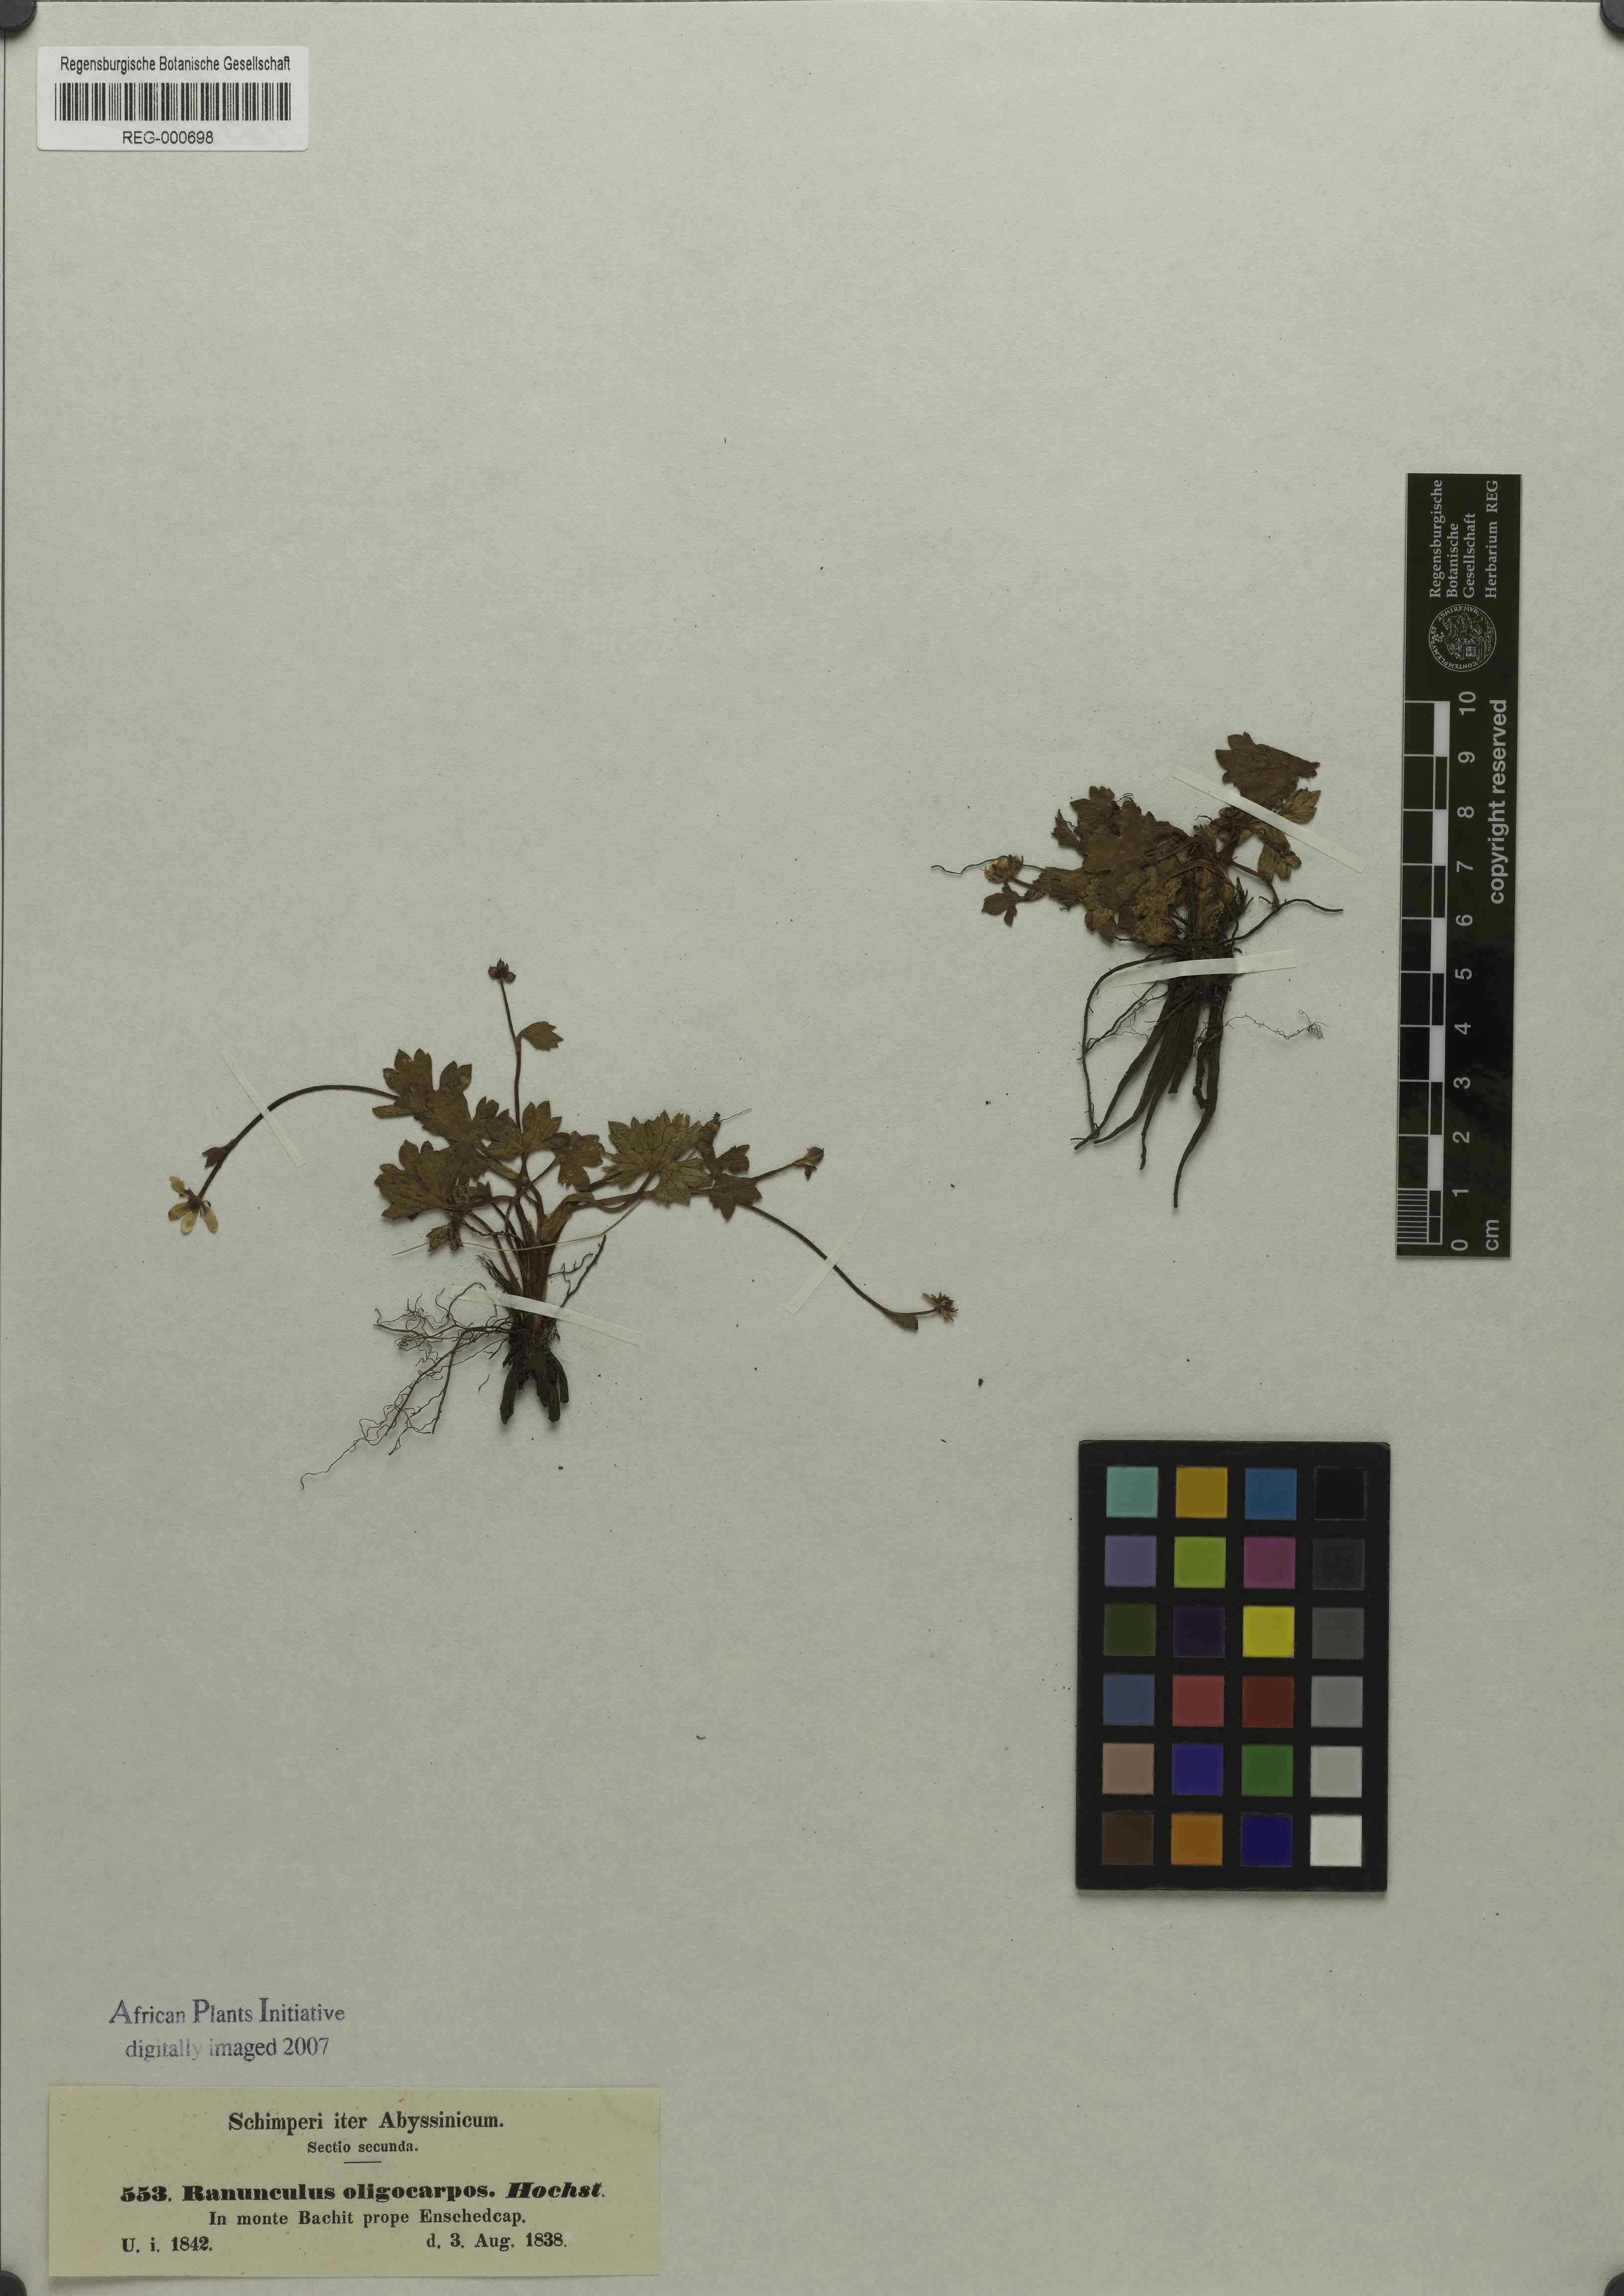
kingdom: Plantae
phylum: Tracheophyta
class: Magnoliopsida
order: Ranunculales
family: Ranunculaceae
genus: Ranunculus
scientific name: Ranunculus oligocarpos
